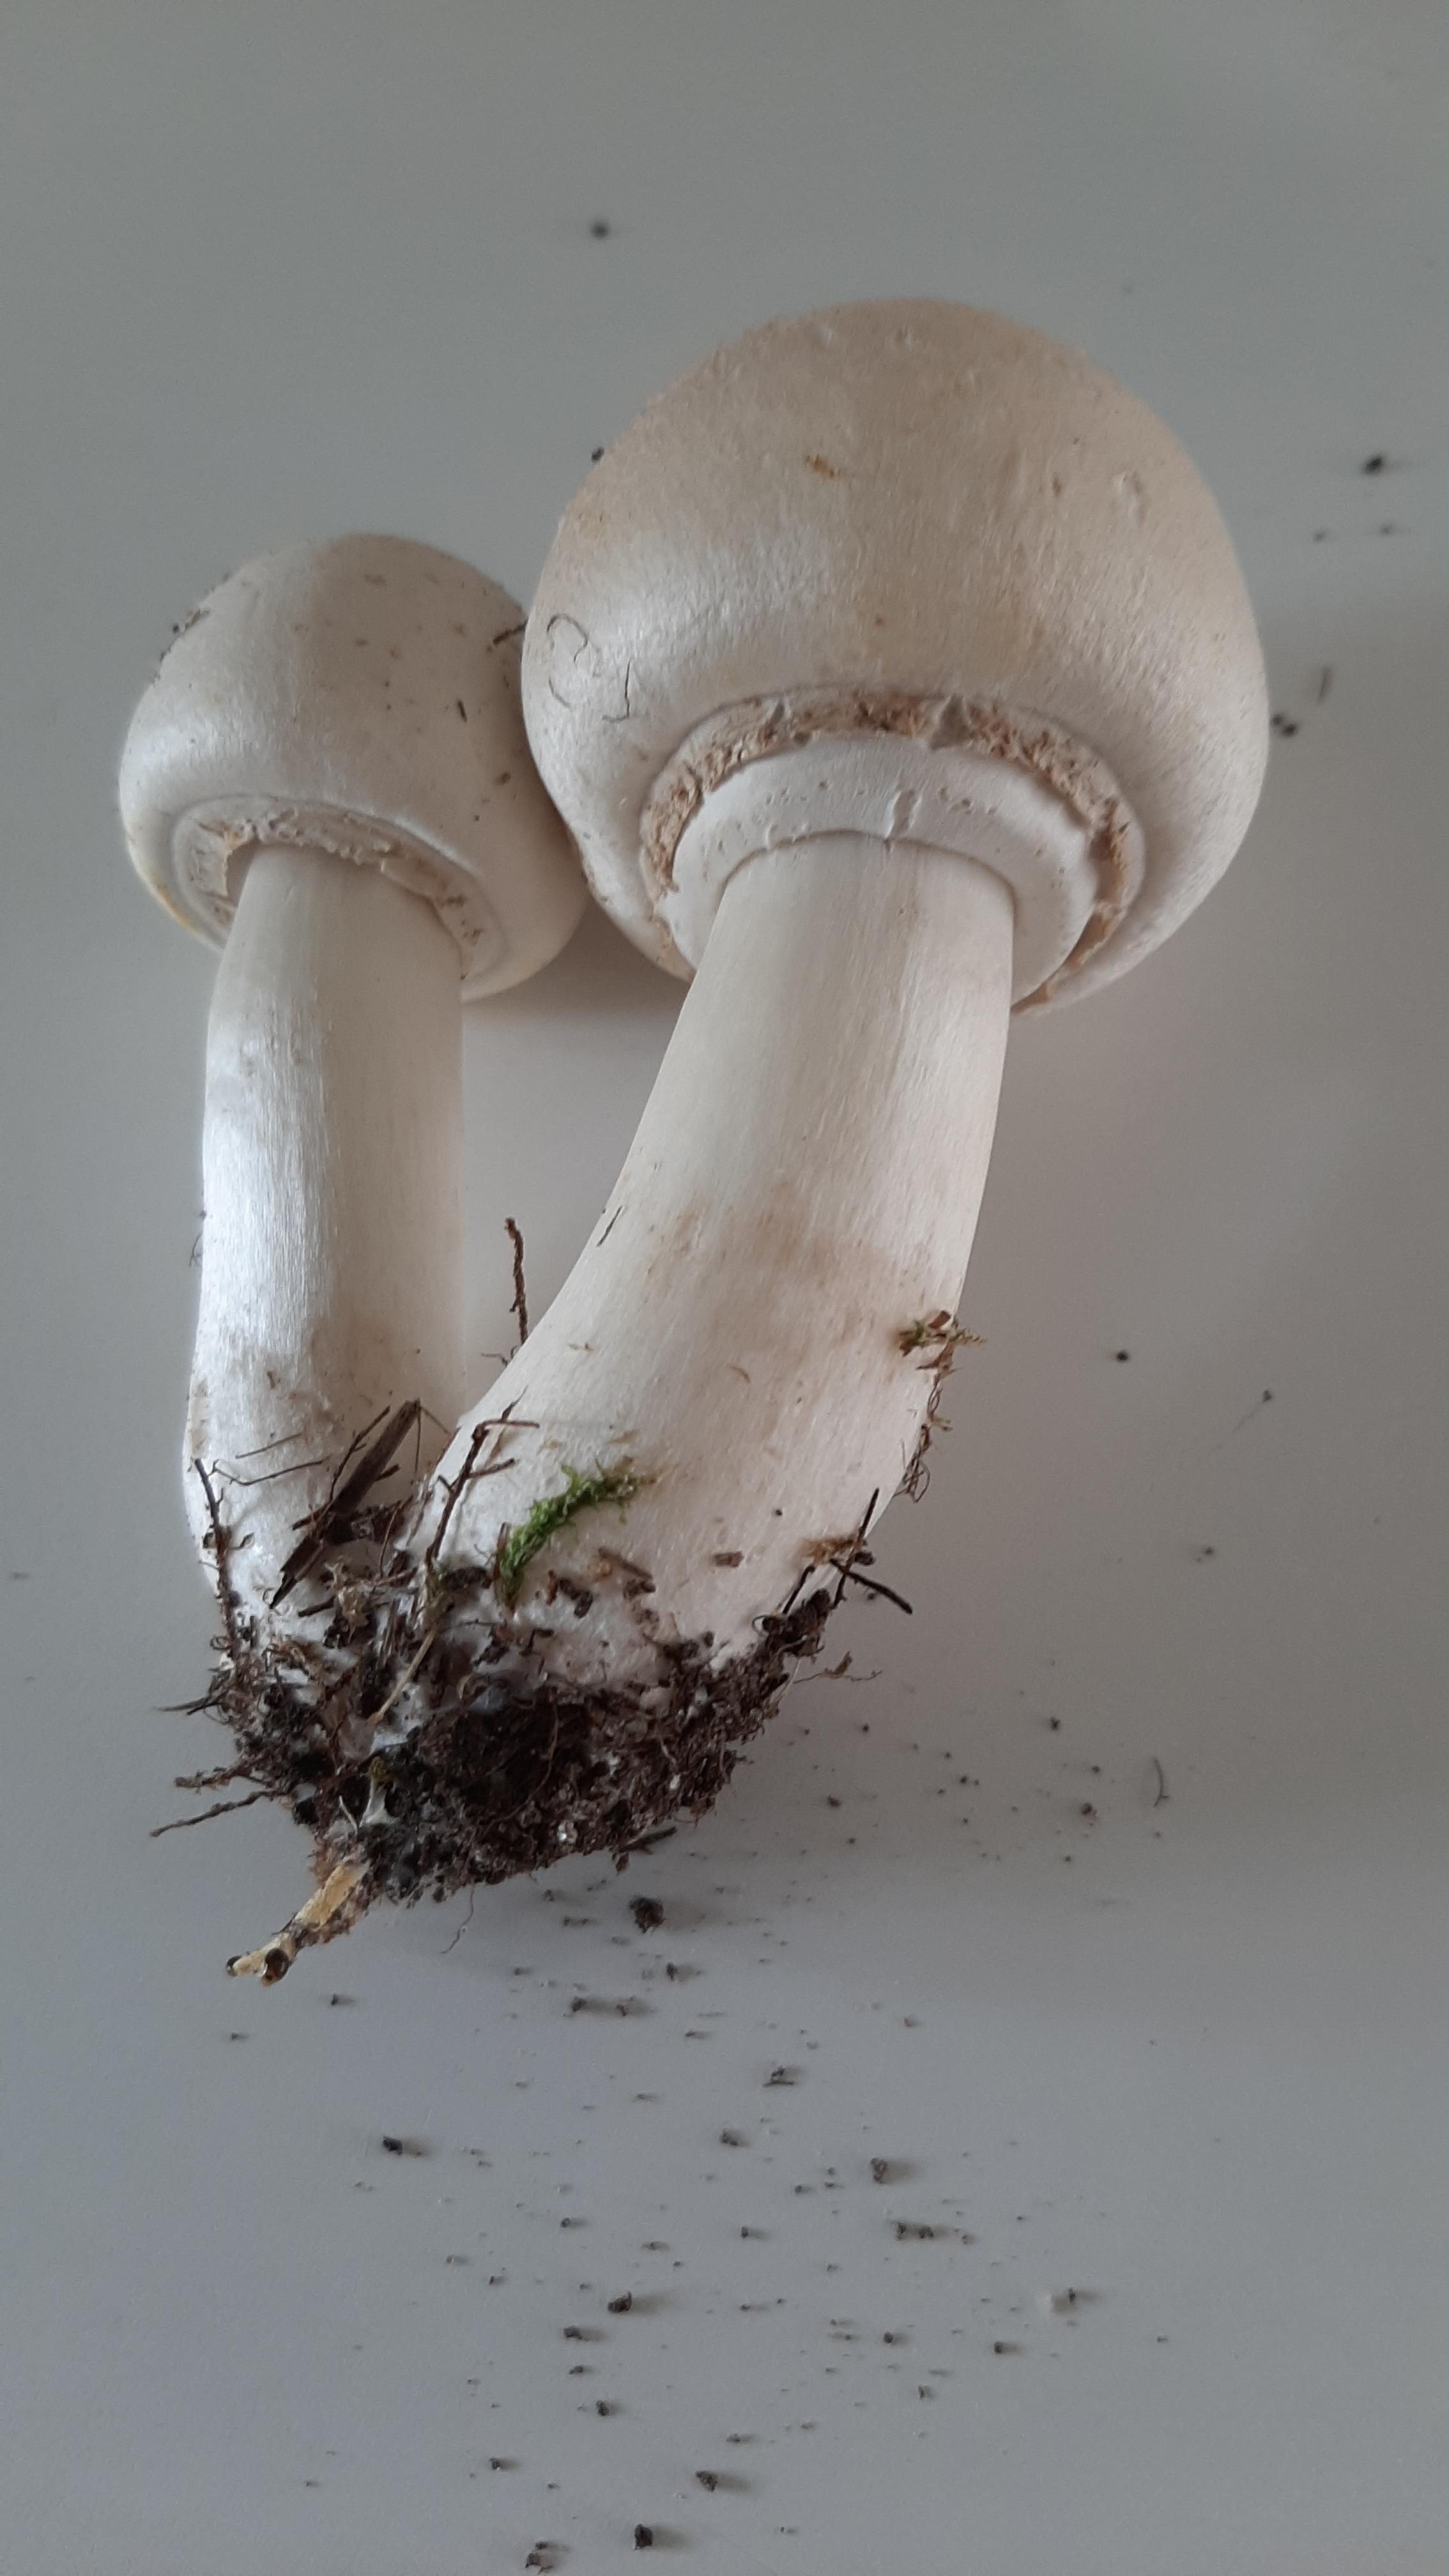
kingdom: Fungi
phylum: Basidiomycota
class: Agaricomycetes
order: Agaricales
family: Agaricaceae
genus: Agaricus
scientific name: Agaricus xanthodermus
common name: karbol-champignon
